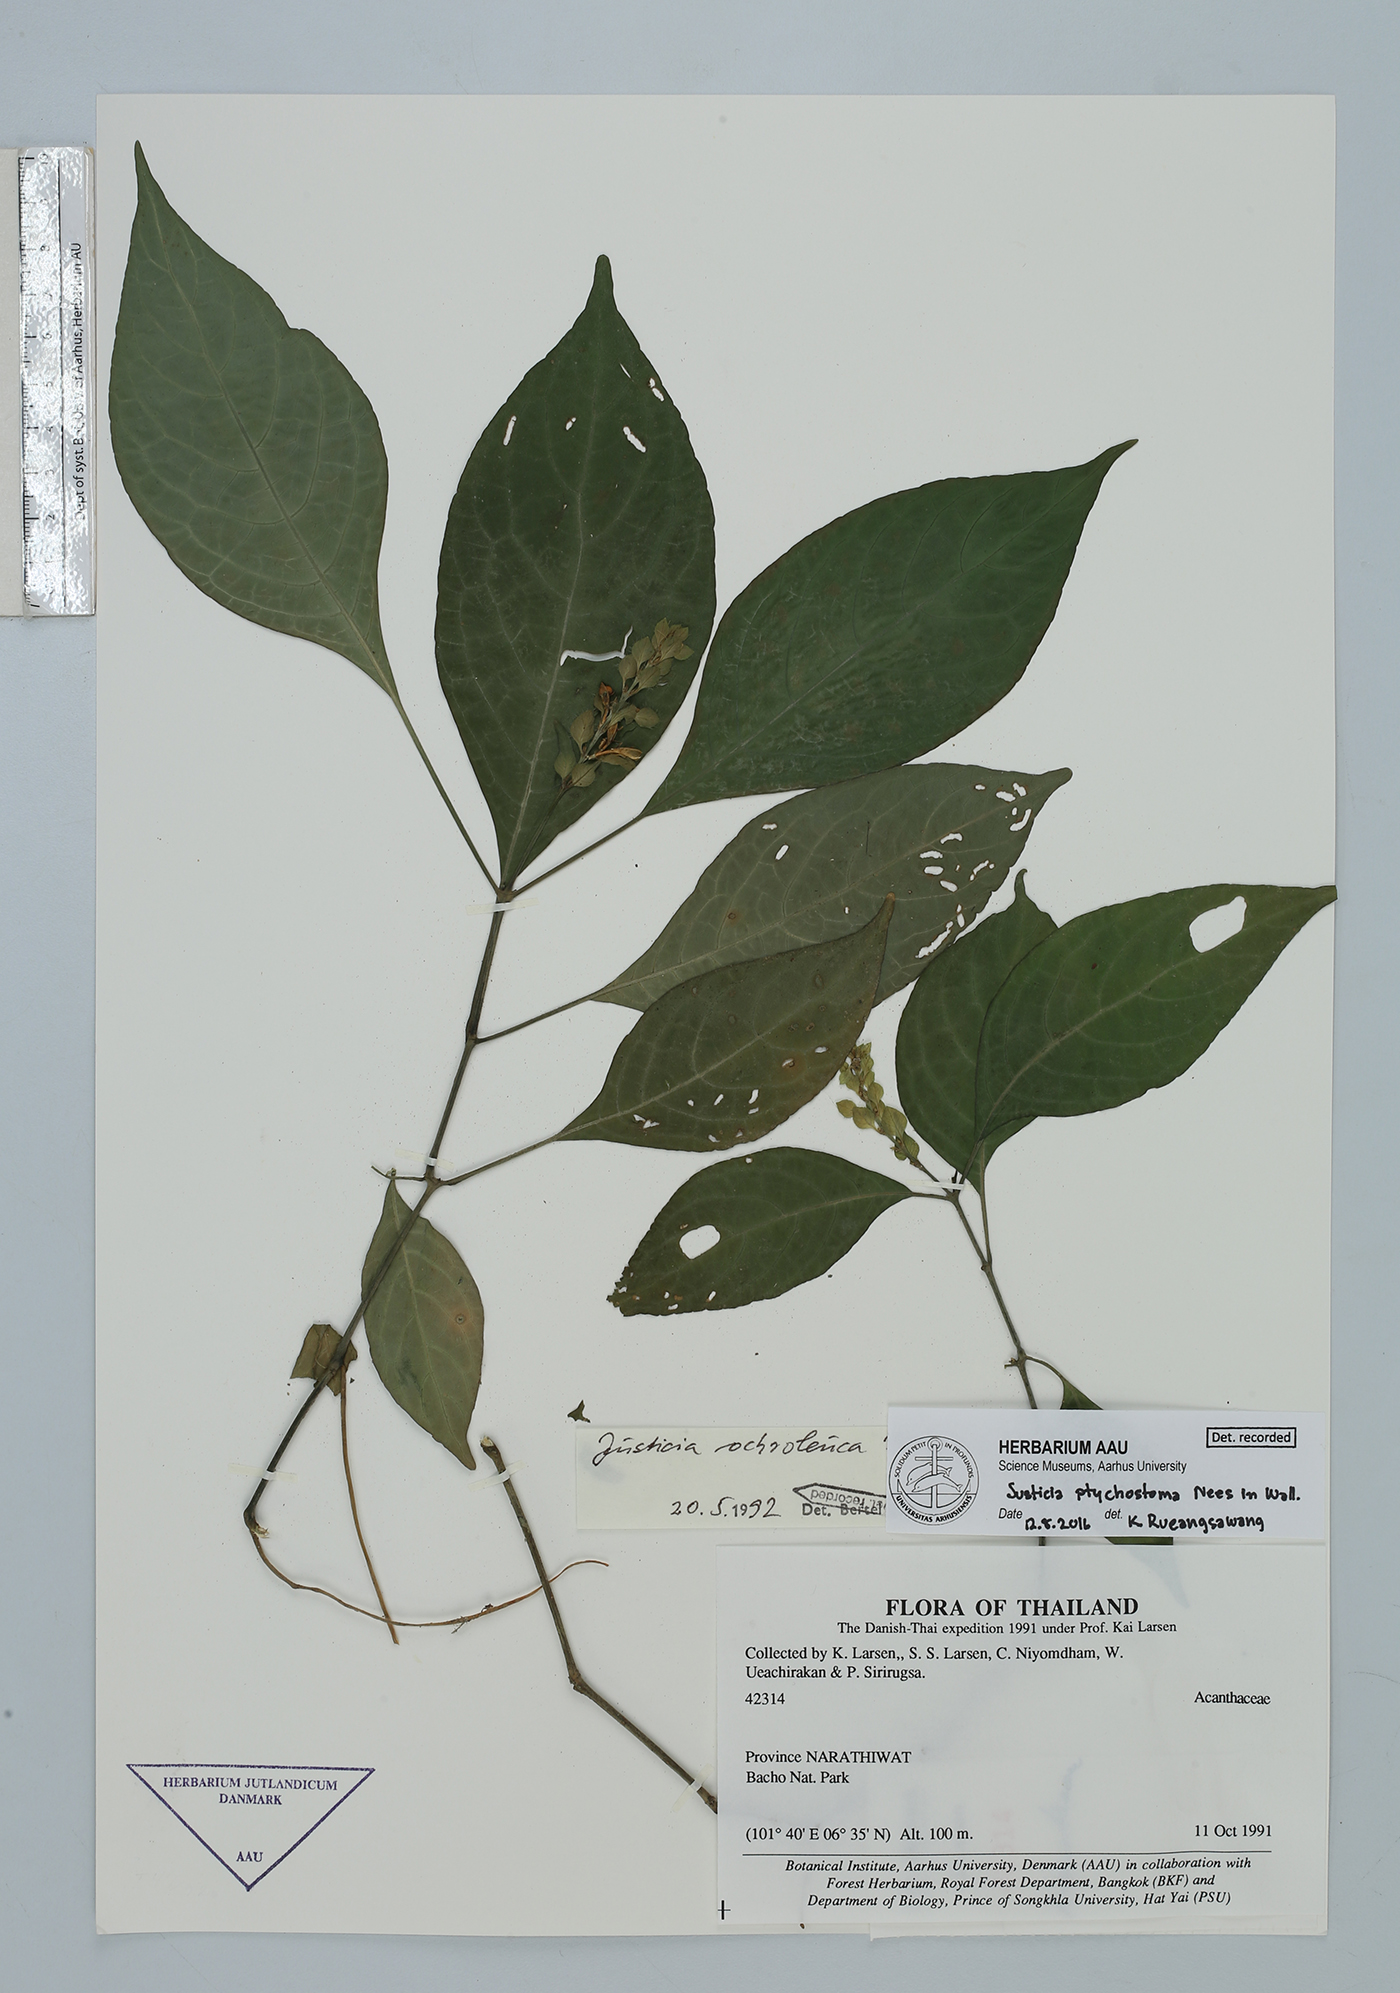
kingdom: Plantae
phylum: Tracheophyta
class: Magnoliopsida
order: Lamiales
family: Acanthaceae
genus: Justicia
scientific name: Justicia sumatrana
